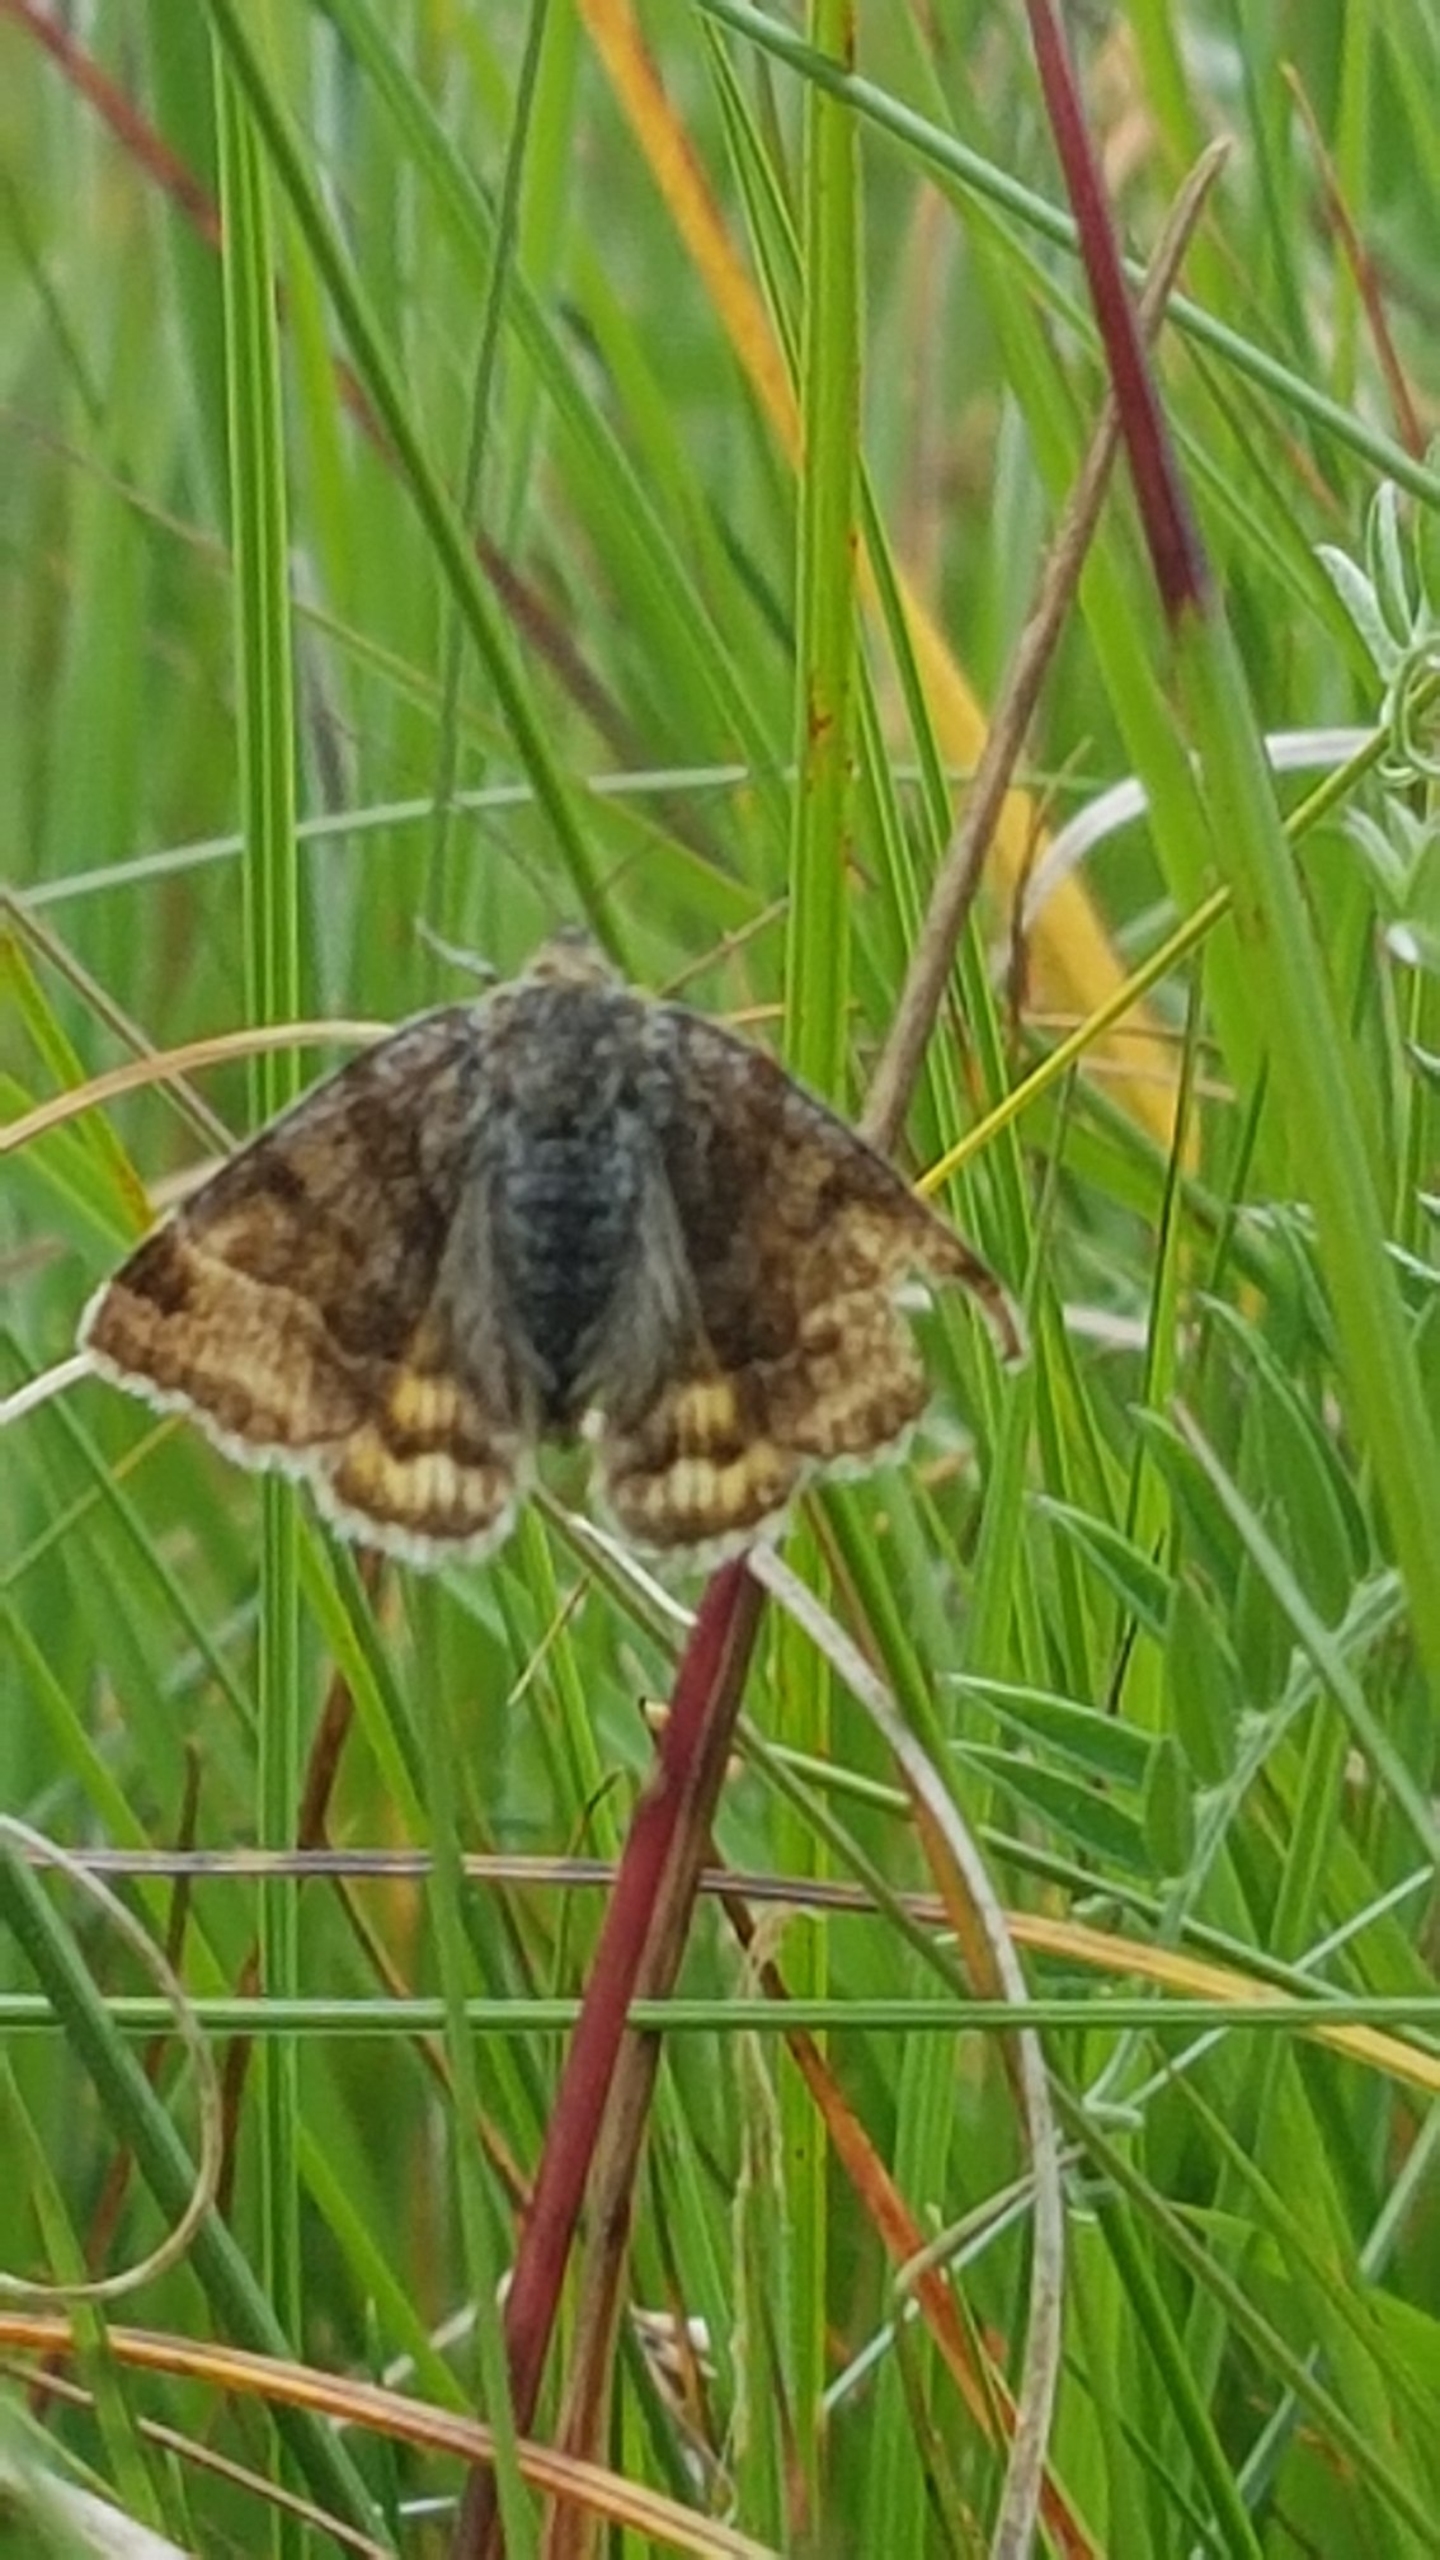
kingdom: Animalia
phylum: Arthropoda
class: Insecta
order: Lepidoptera
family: Erebidae
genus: Euclidia
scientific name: Euclidia glyphica
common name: Brun kløverugle
